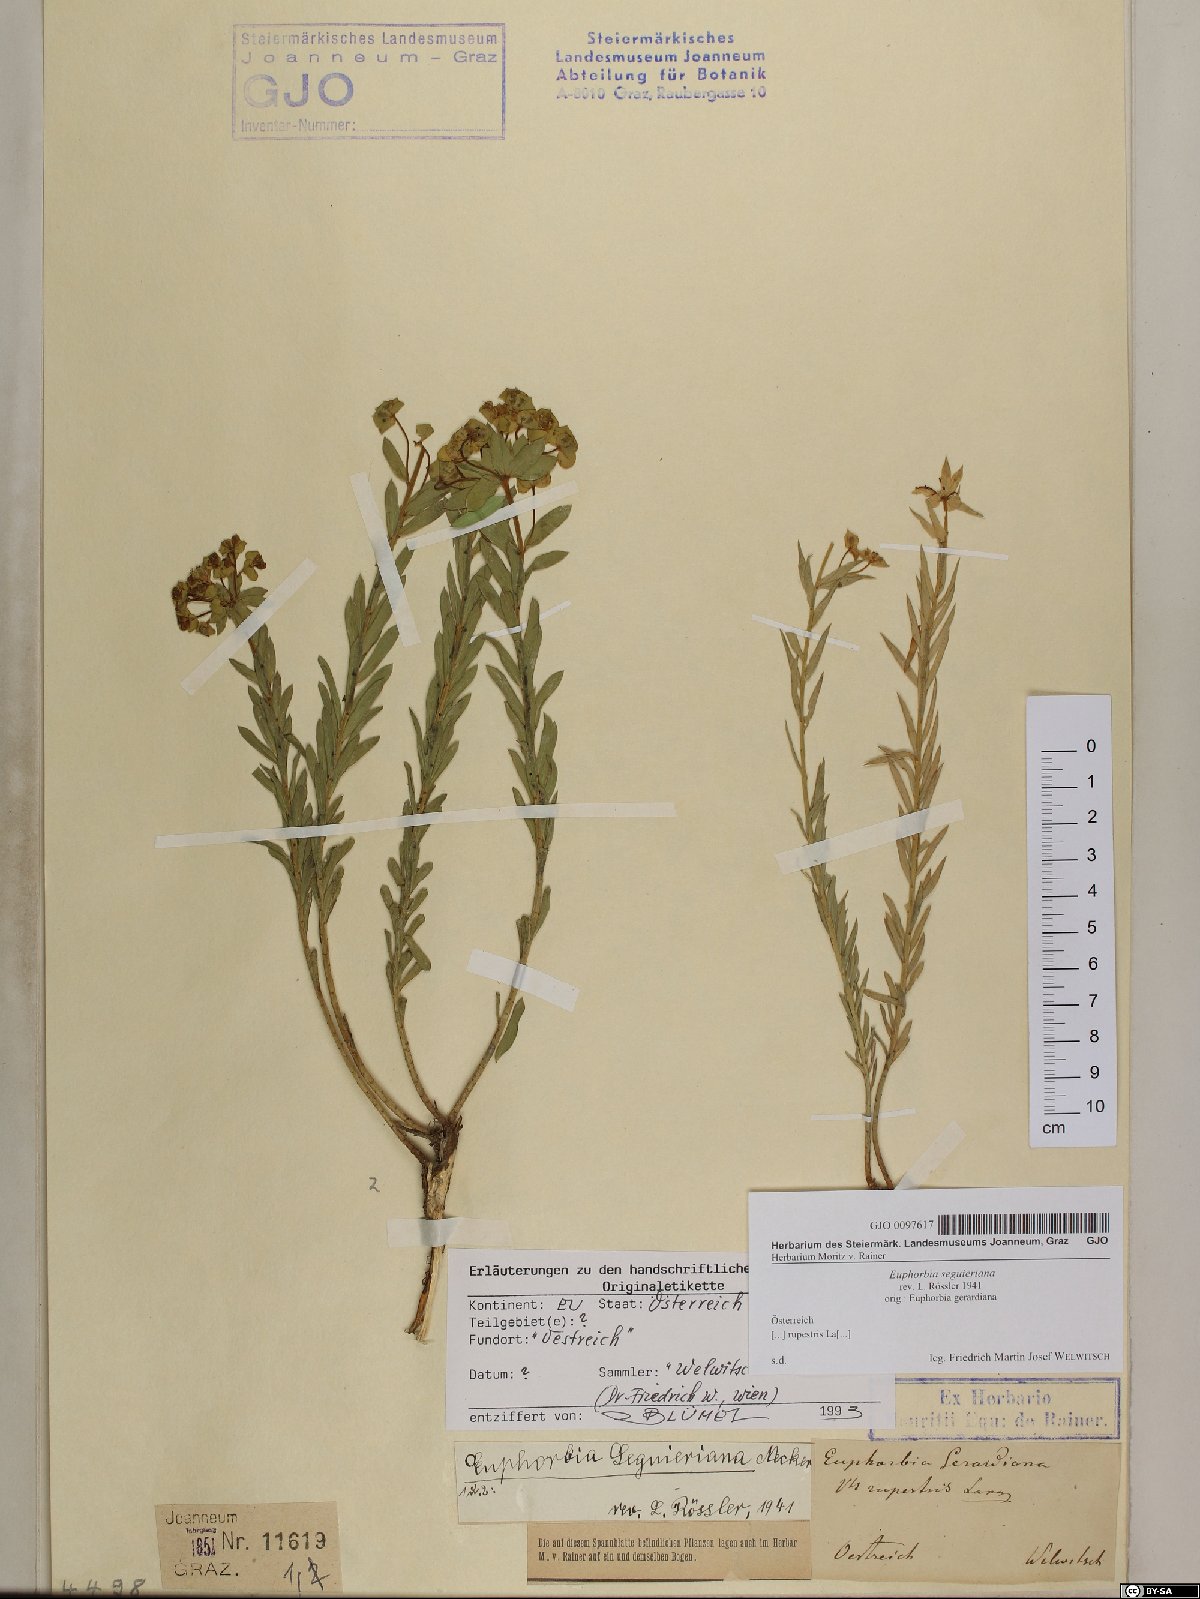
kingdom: Plantae
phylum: Tracheophyta
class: Magnoliopsida
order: Malpighiales
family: Euphorbiaceae
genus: Euphorbia
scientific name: Euphorbia seguieriana
